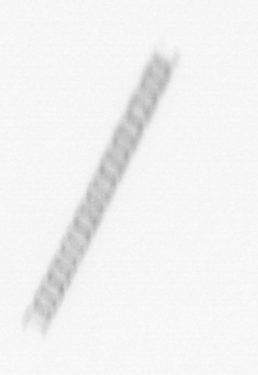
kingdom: Chromista
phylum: Ochrophyta
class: Bacillariophyceae
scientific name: Bacillariophyceae
